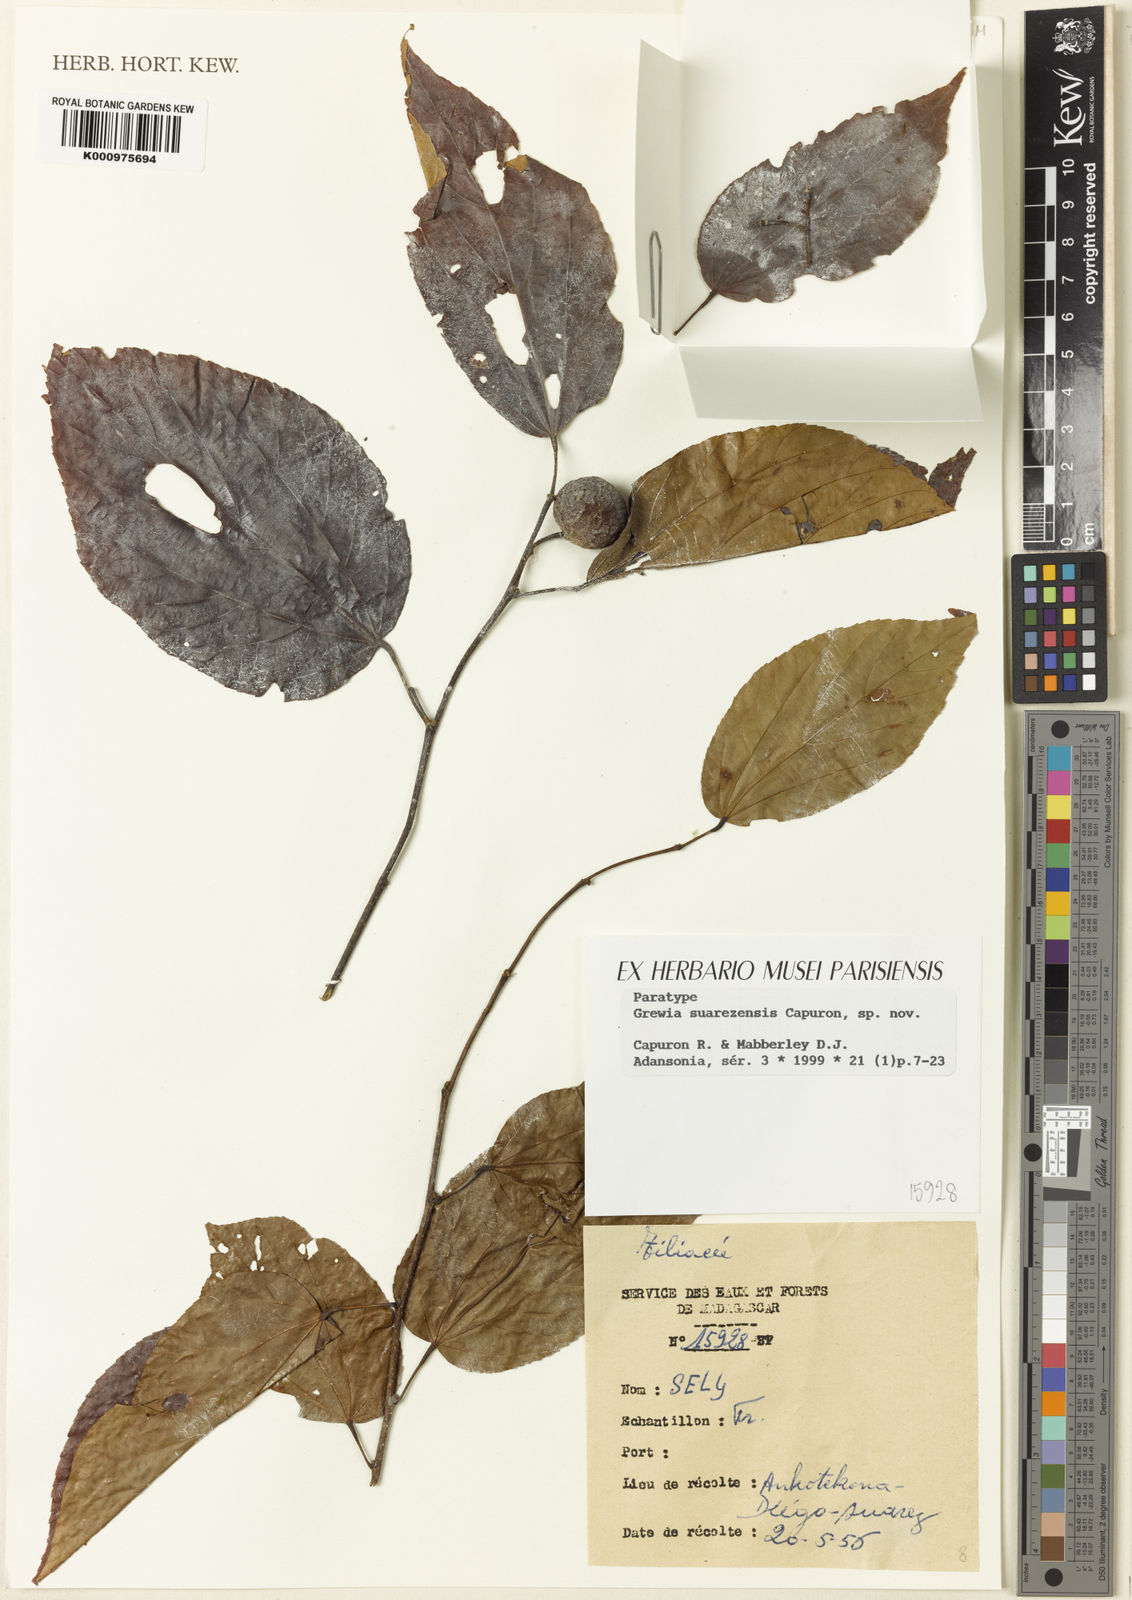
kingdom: Plantae
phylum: Tracheophyta
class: Magnoliopsida
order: Malvales
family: Malvaceae
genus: Grewia
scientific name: Grewia suarezensis
